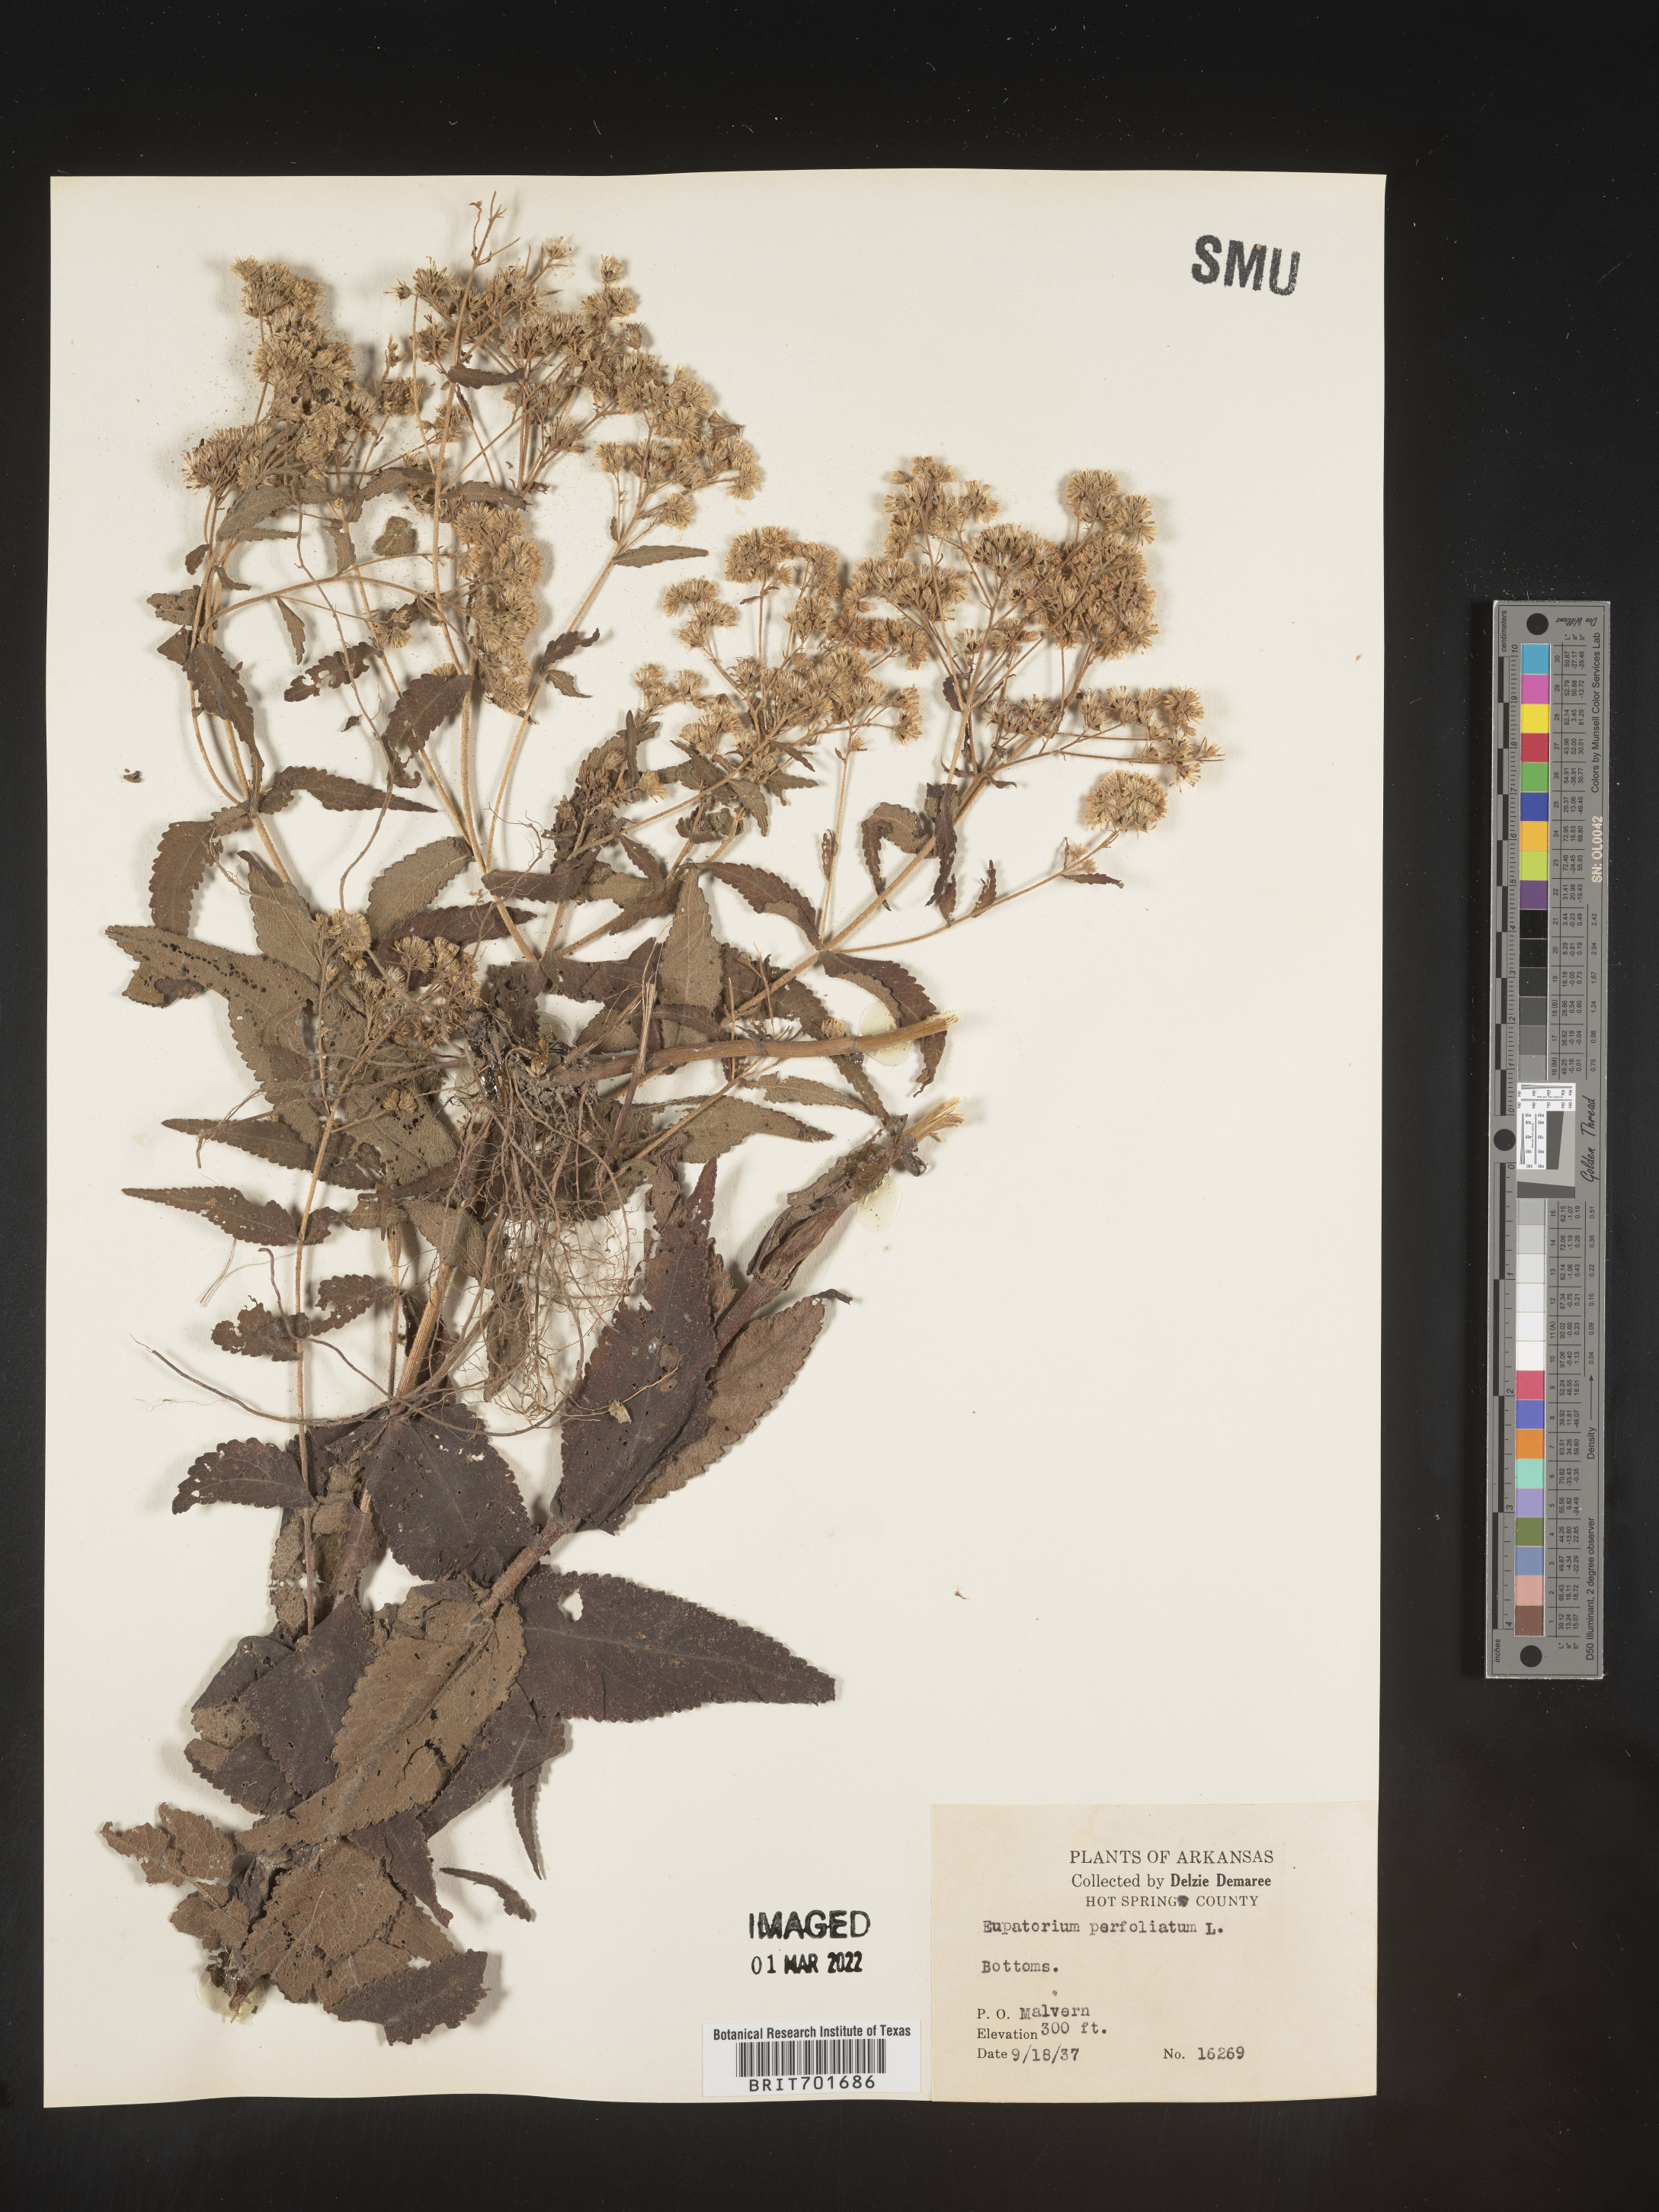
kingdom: Plantae
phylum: Tracheophyta
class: Magnoliopsida
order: Asterales
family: Asteraceae
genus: Eupatorium
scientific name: Eupatorium perfoliatum
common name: Boneset
